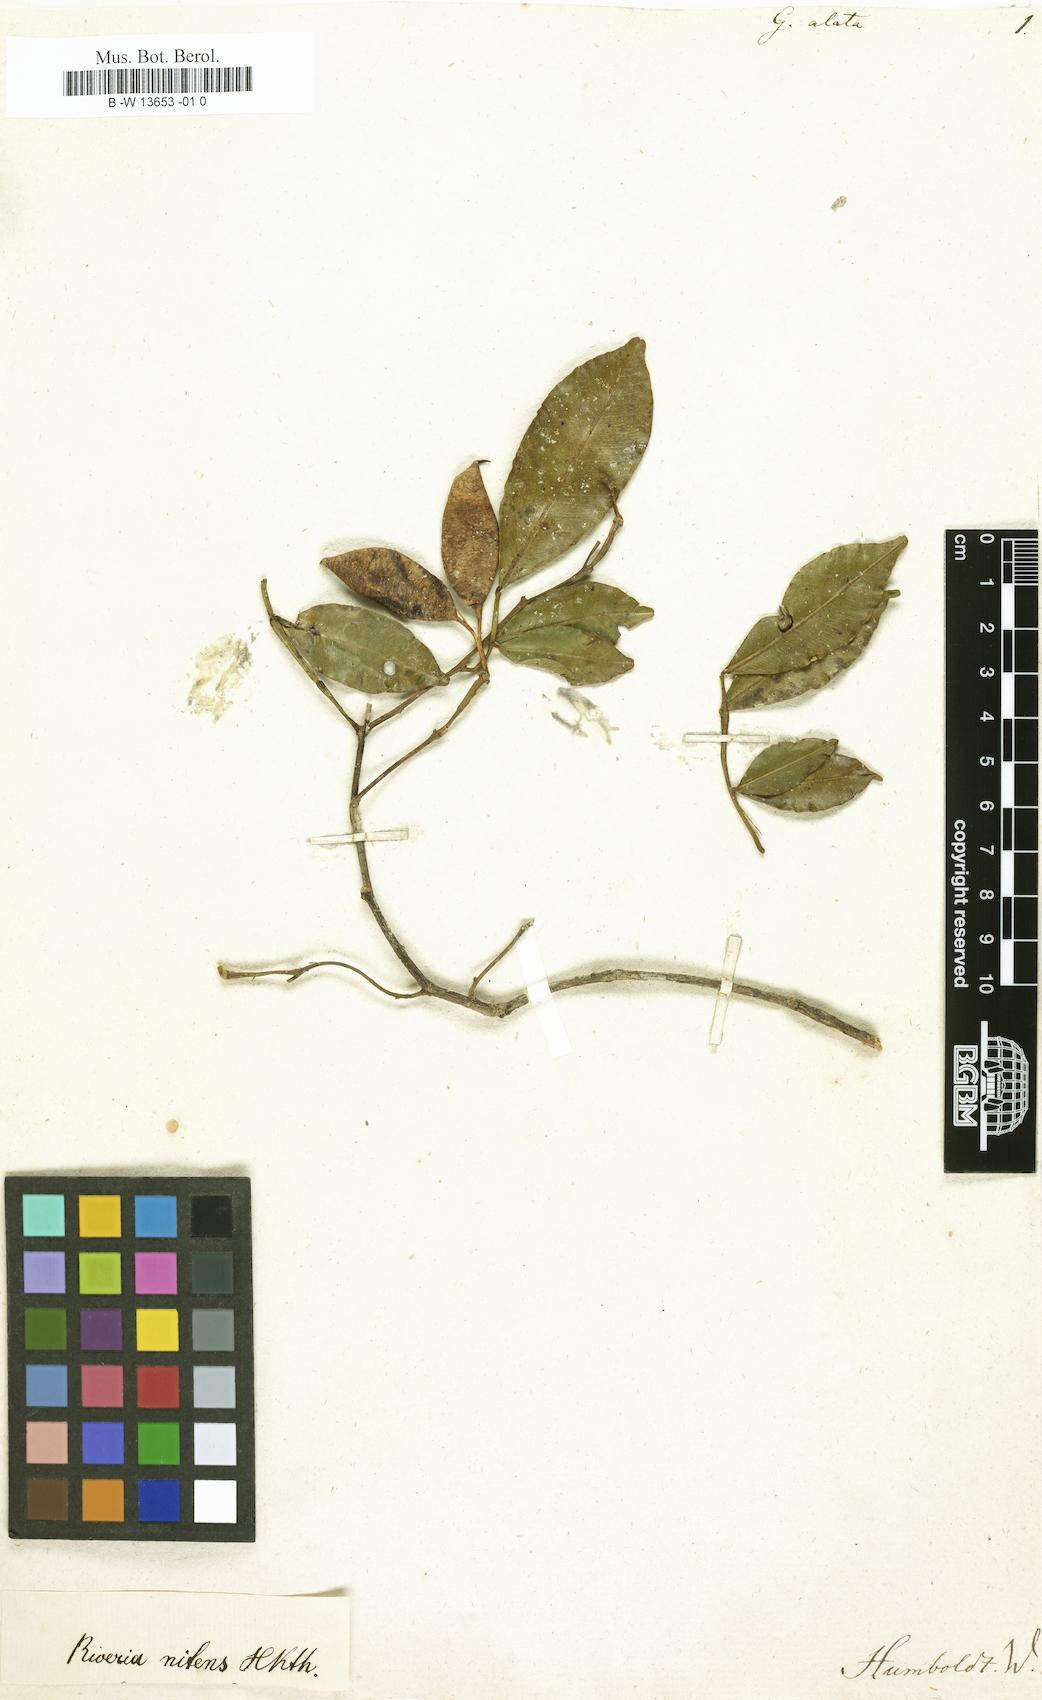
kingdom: Plantae
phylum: Tracheophyta
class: Magnoliopsida
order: Fabales
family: Fabaceae
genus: Geoffroea
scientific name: Geoffroea
